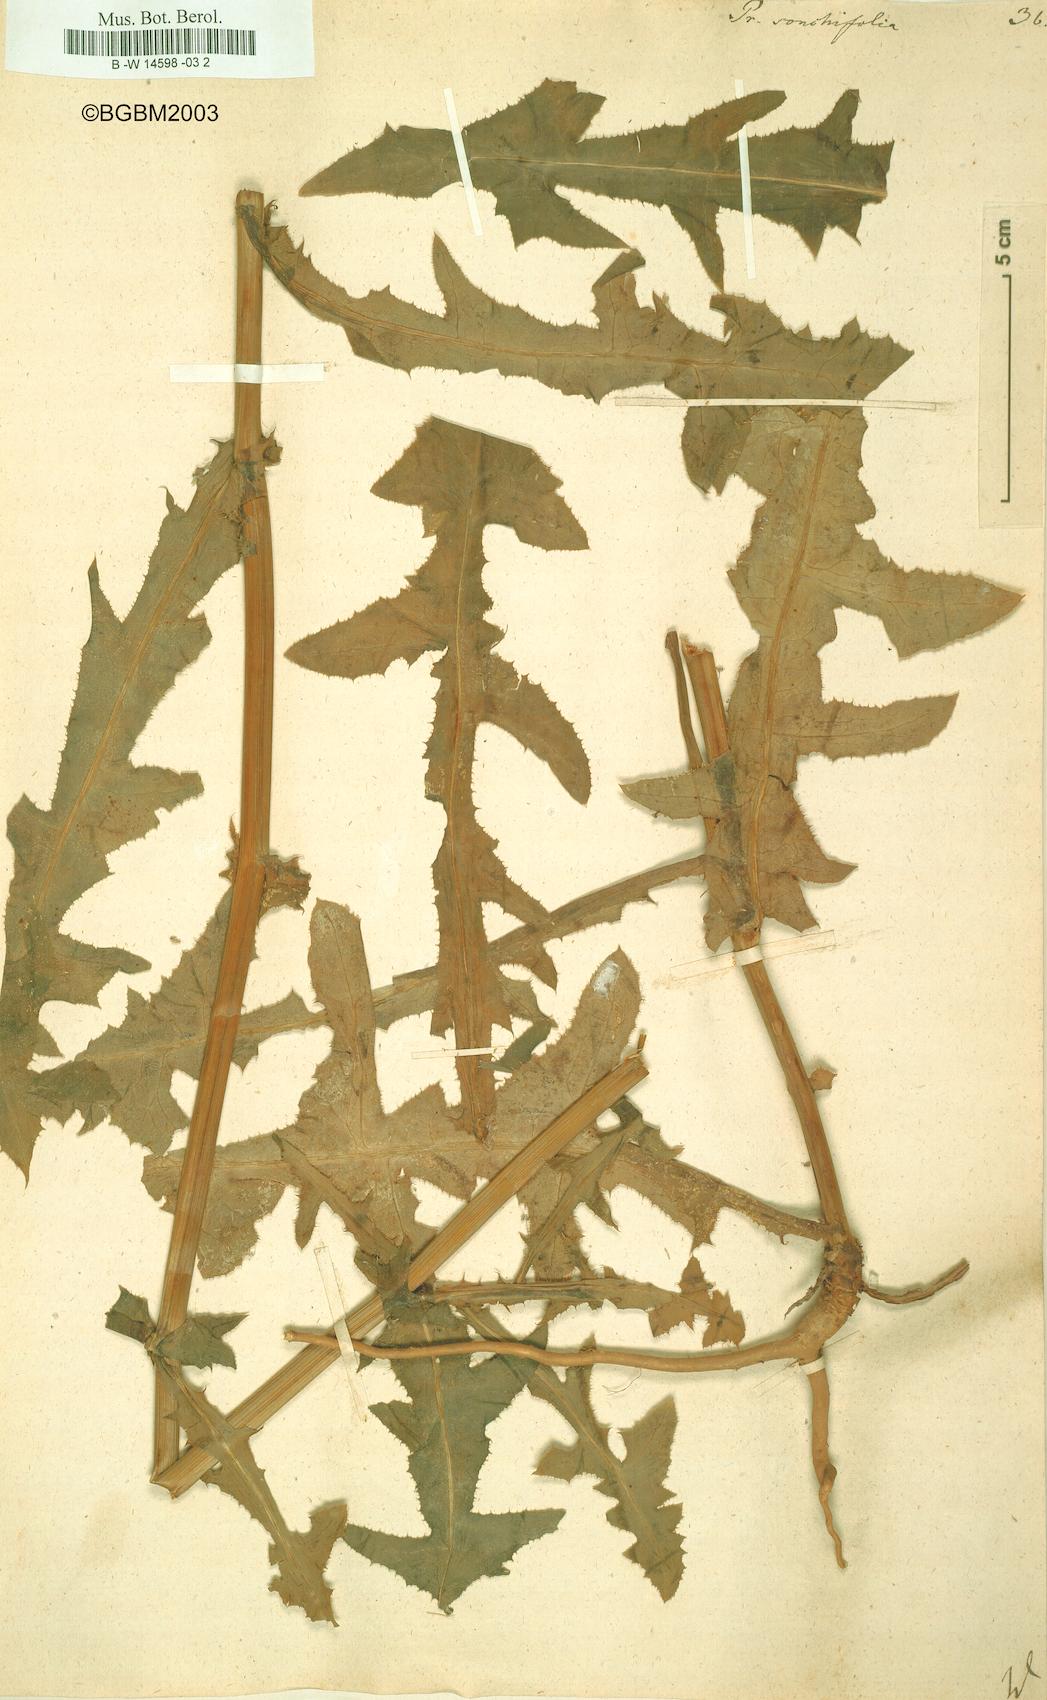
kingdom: Plantae
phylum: Tracheophyta
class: Magnoliopsida
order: Asterales
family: Asteraceae
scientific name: Asteraceae
